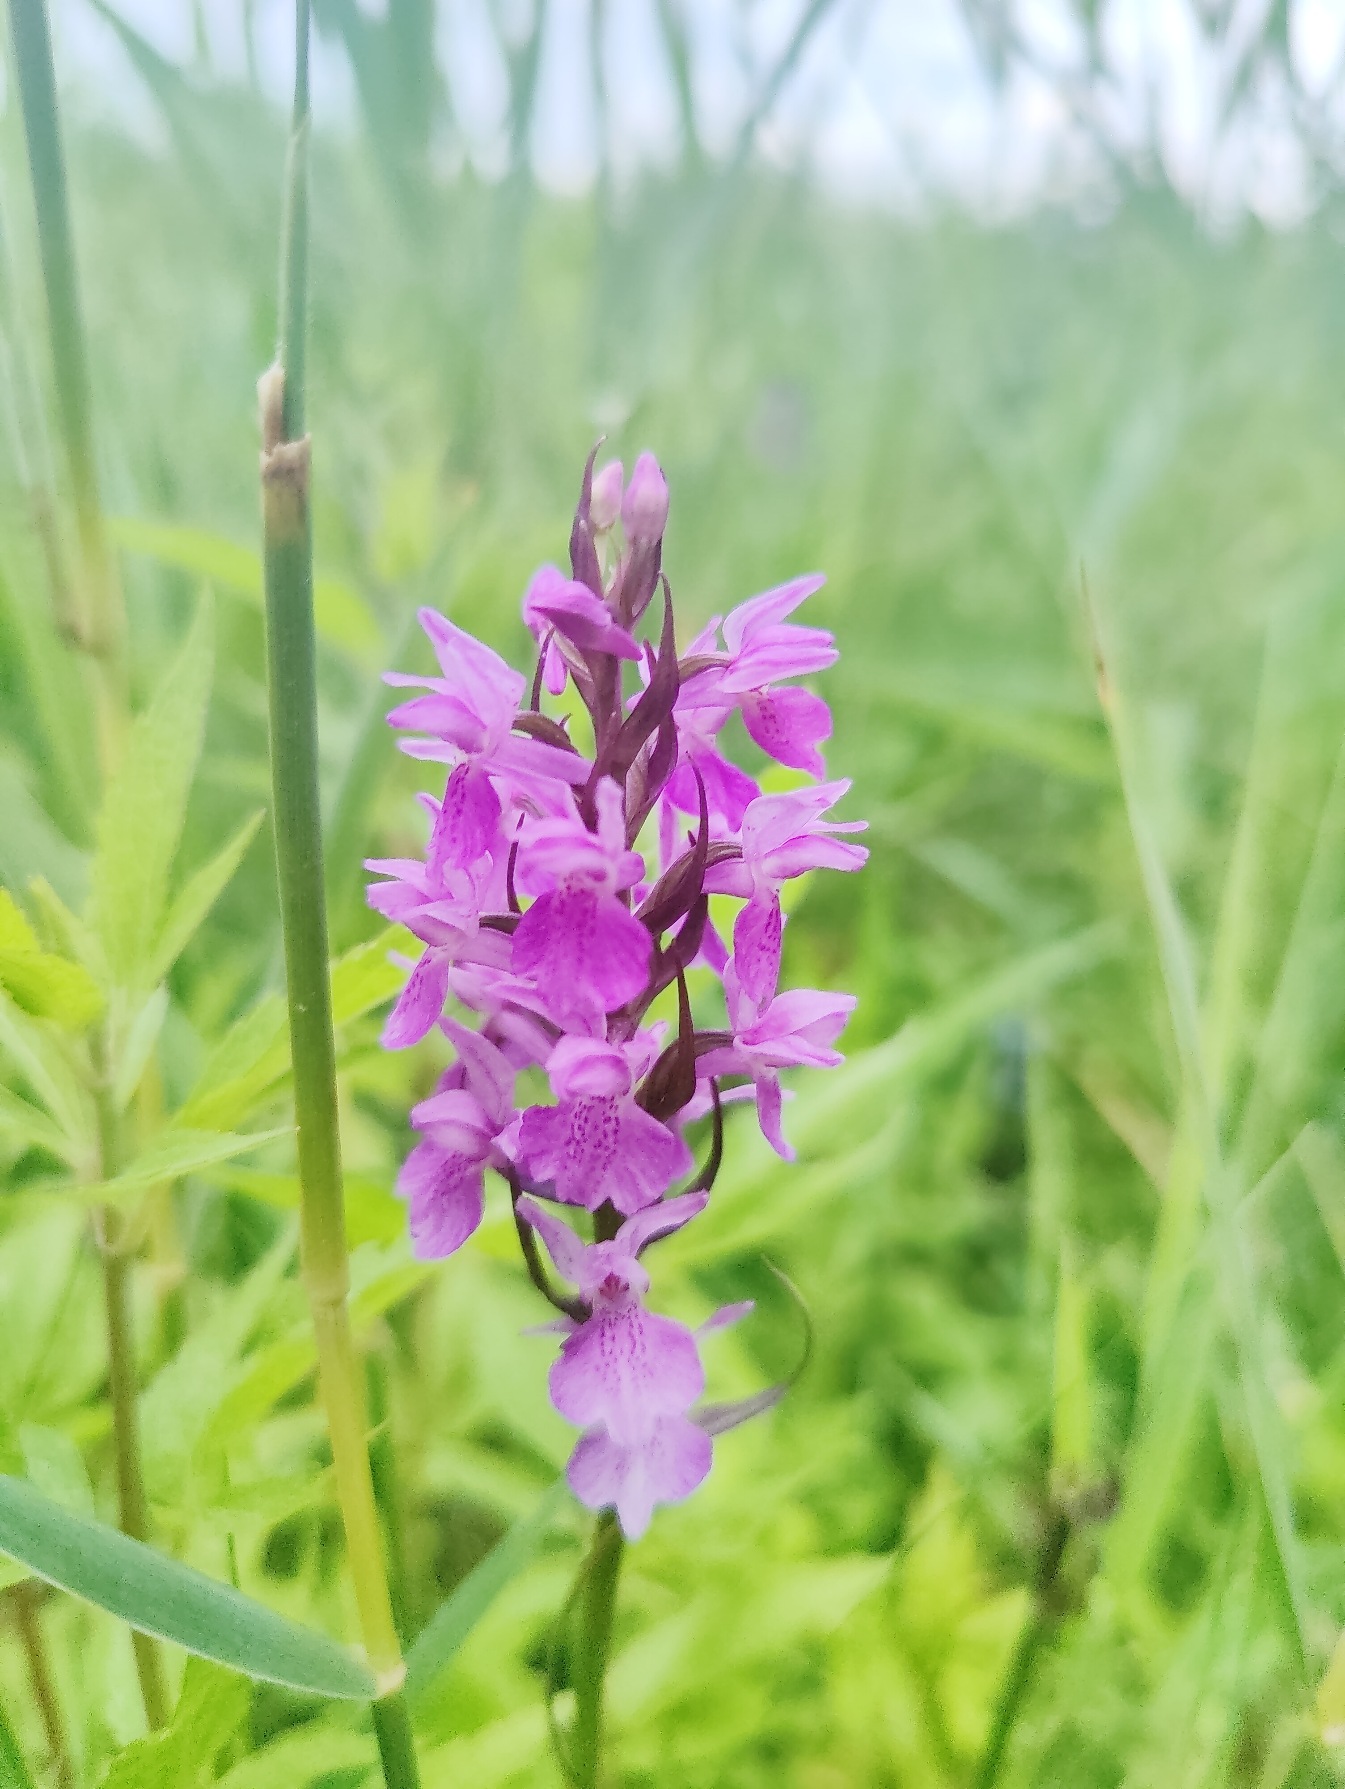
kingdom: Plantae
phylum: Tracheophyta
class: Liliopsida
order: Asparagales
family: Orchidaceae
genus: Dactylorhiza
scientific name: Dactylorhiza majalis
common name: Priklæbet gøgeurt
